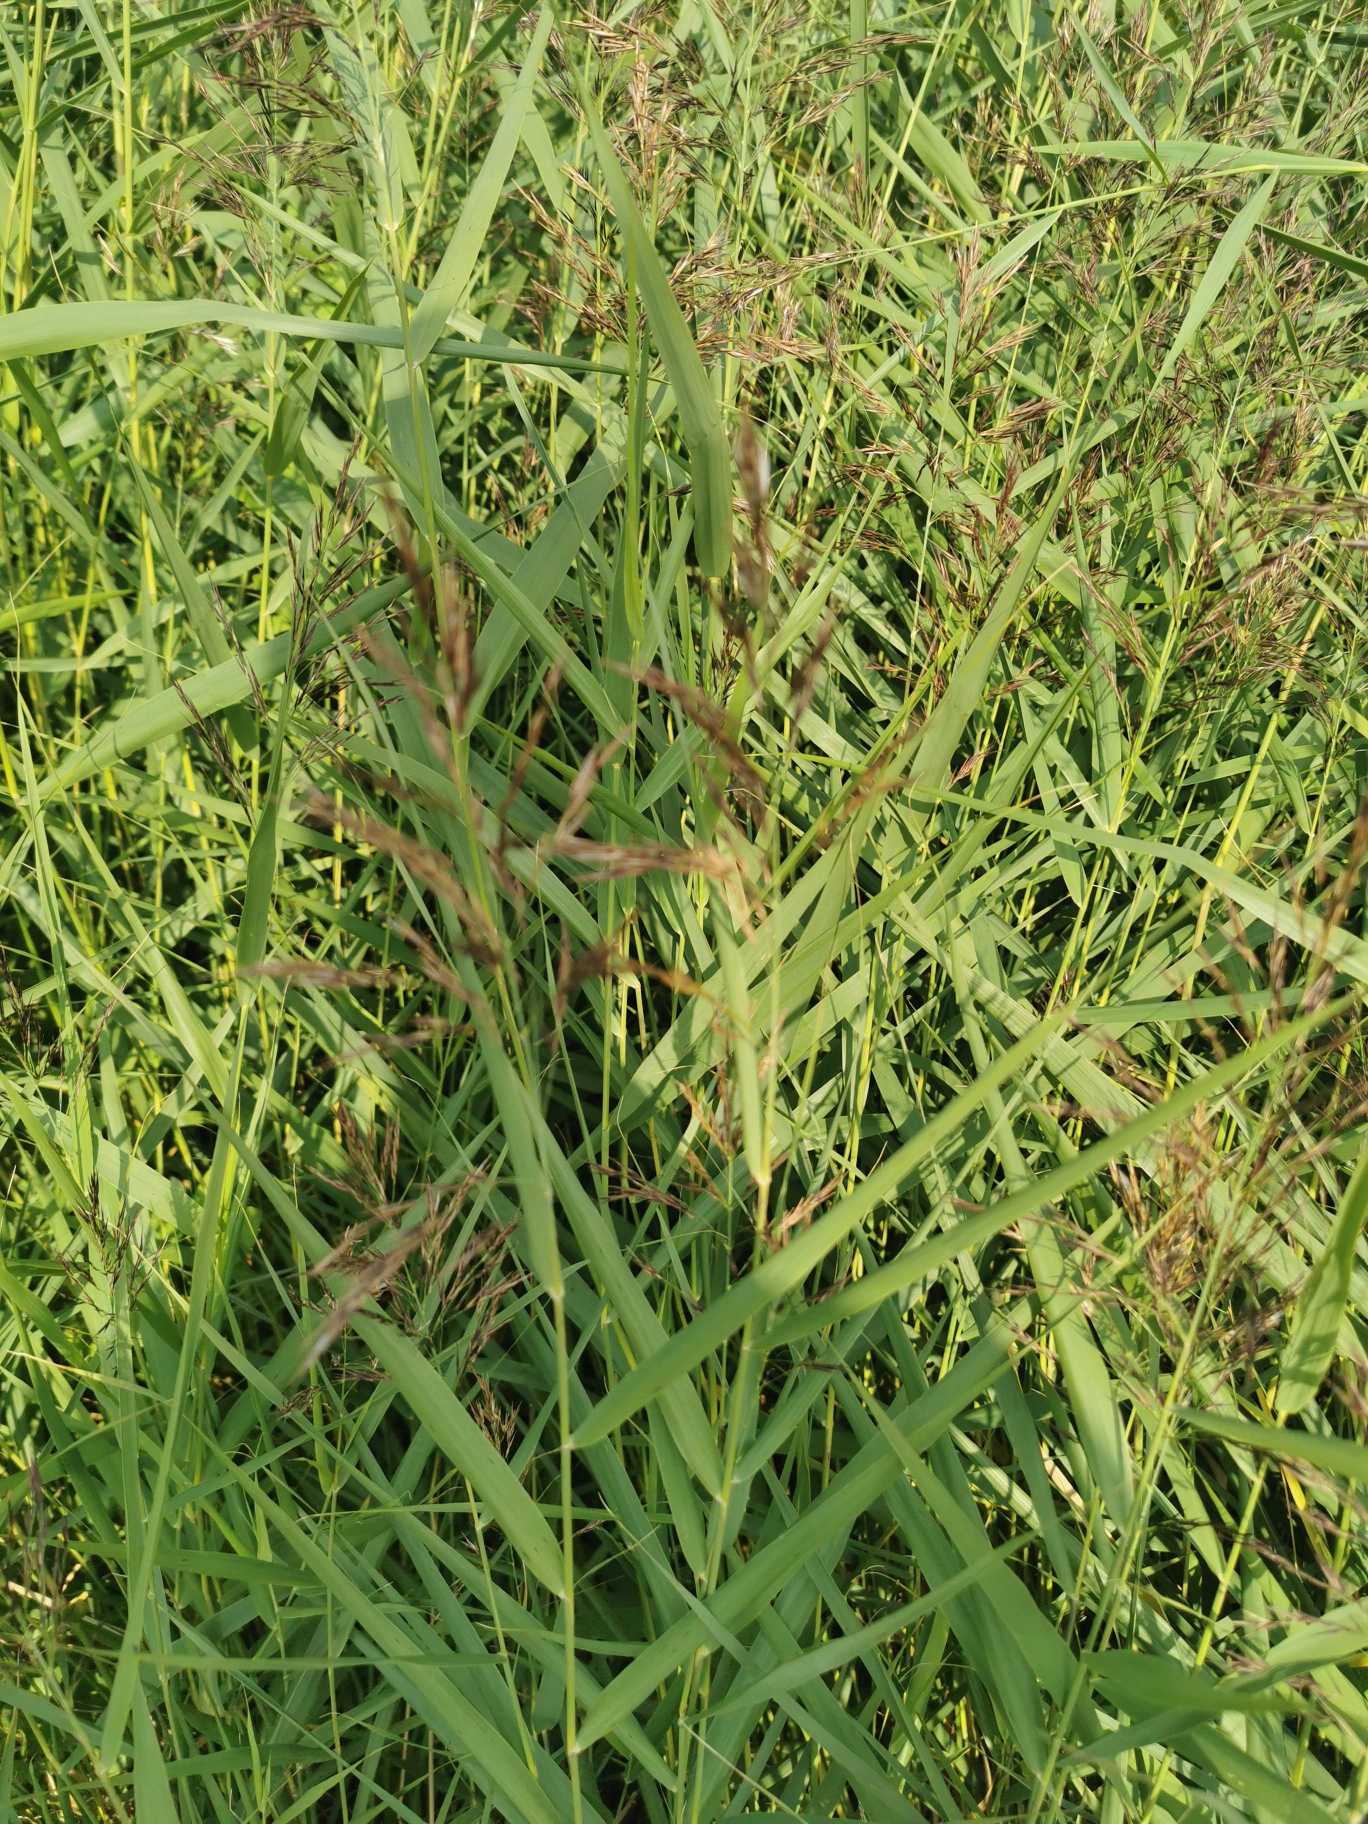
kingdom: Plantae
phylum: Tracheophyta
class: Liliopsida
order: Poales
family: Poaceae
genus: Phragmites
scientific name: Phragmites australis
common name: Tagrør
